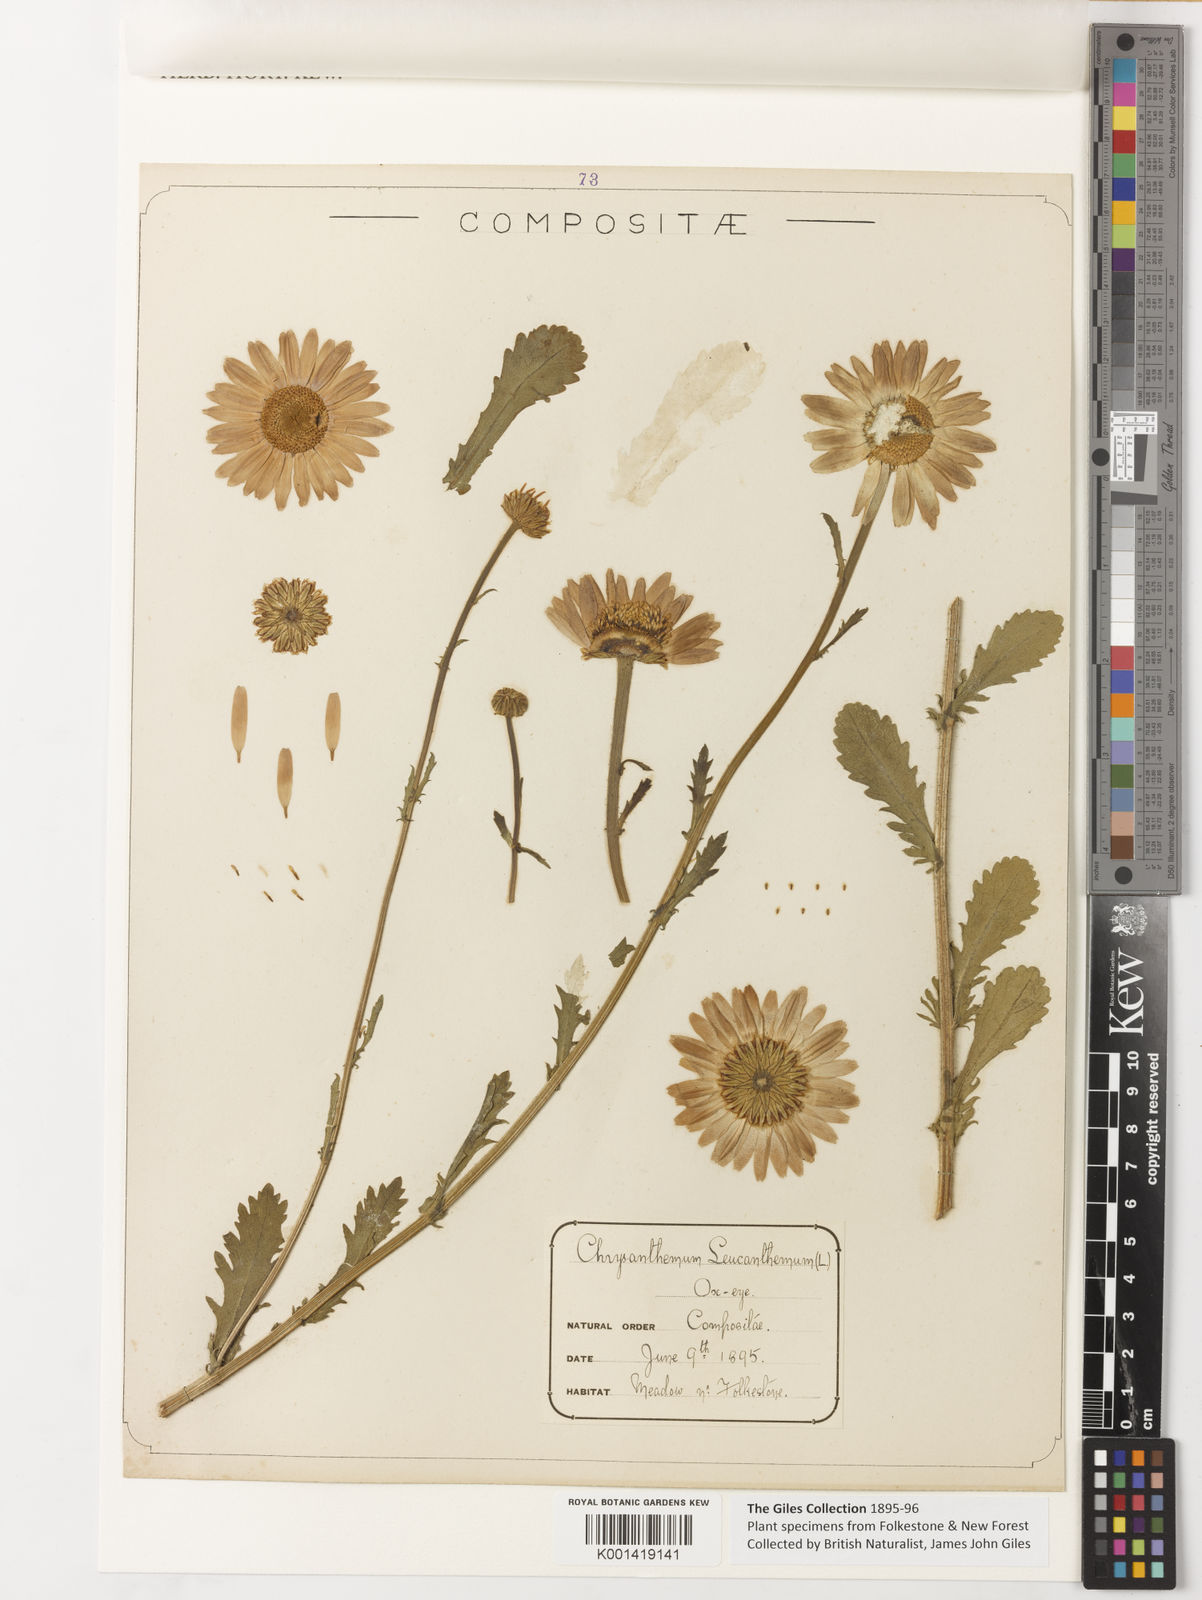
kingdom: Plantae
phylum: Tracheophyta
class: Magnoliopsida
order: Asterales
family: Asteraceae
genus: Leucanthemum
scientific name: Leucanthemum vulgare
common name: Oxeye daisy
